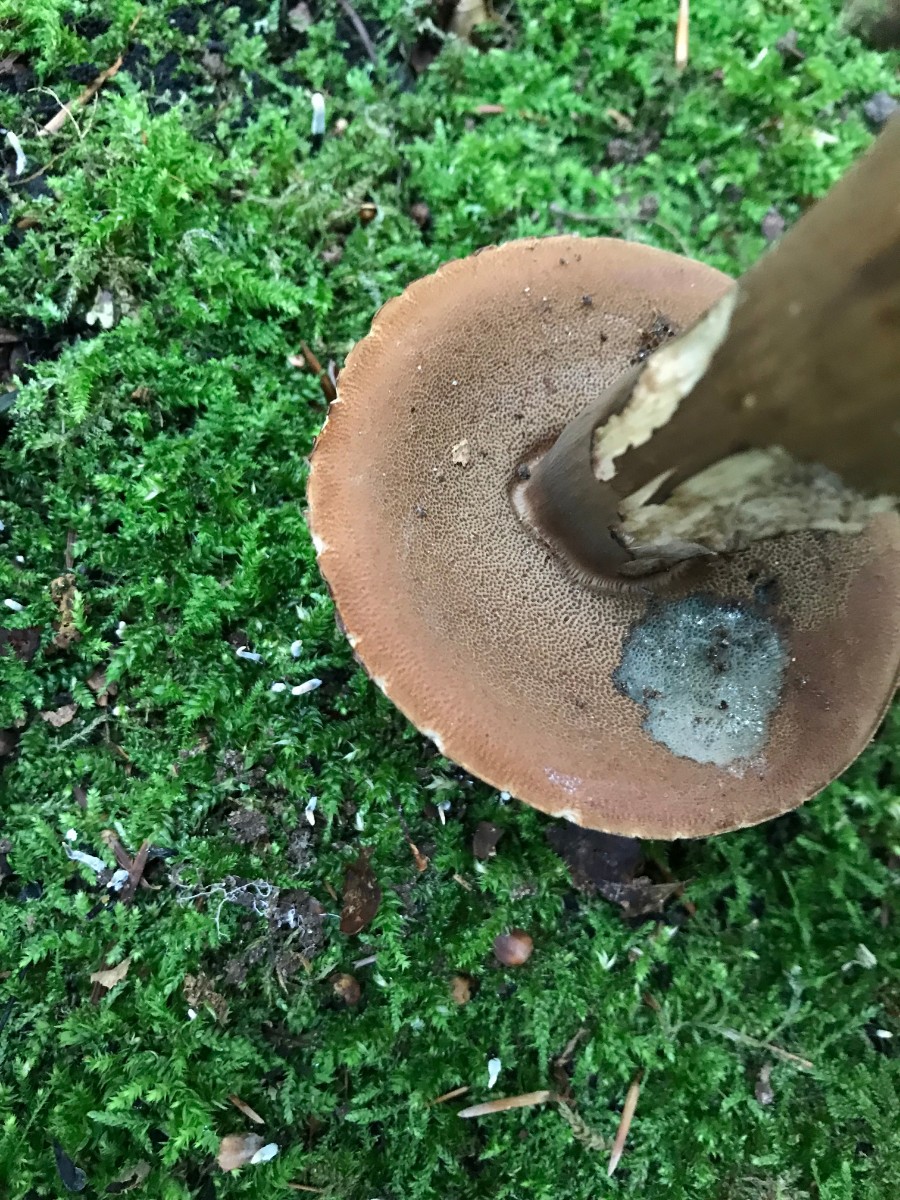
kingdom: Fungi
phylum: Basidiomycota
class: Agaricomycetes
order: Boletales
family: Boletaceae
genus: Porphyrellus
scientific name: Porphyrellus porphyrosporus
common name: sodrørhat
